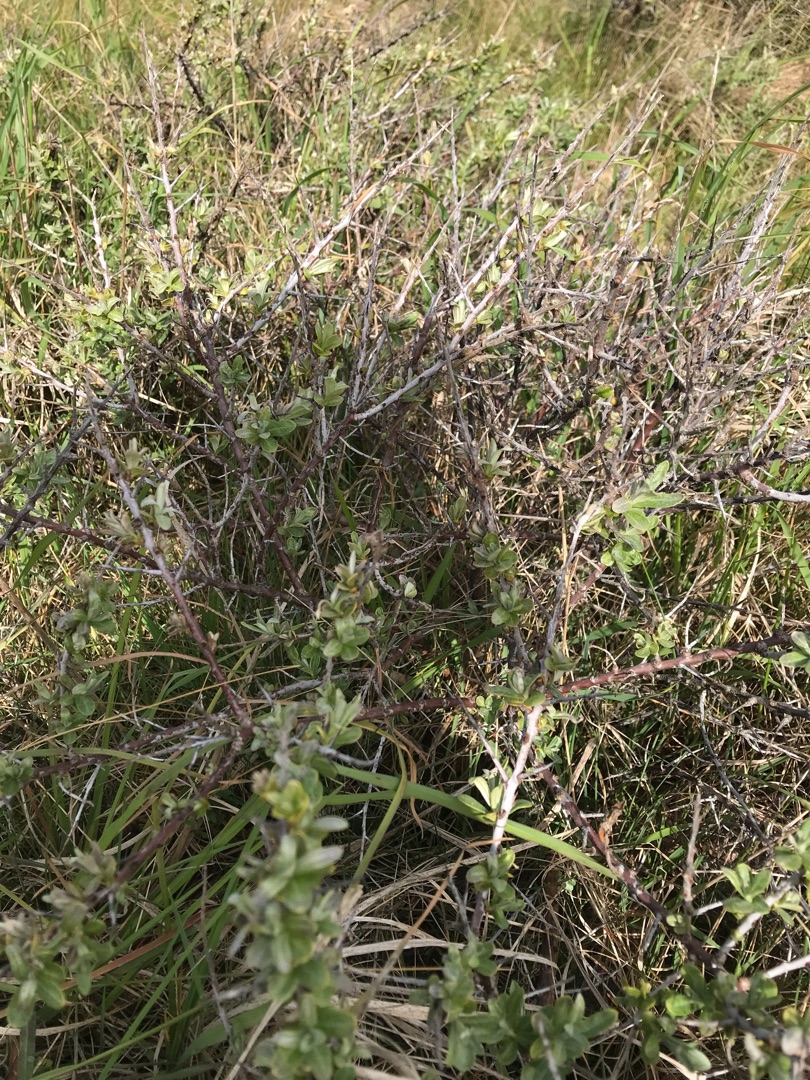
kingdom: Plantae
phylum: Tracheophyta
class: Magnoliopsida
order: Rosales
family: Elaeagnaceae
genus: Hippophae
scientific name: Hippophae rhamnoides
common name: Havtorn
